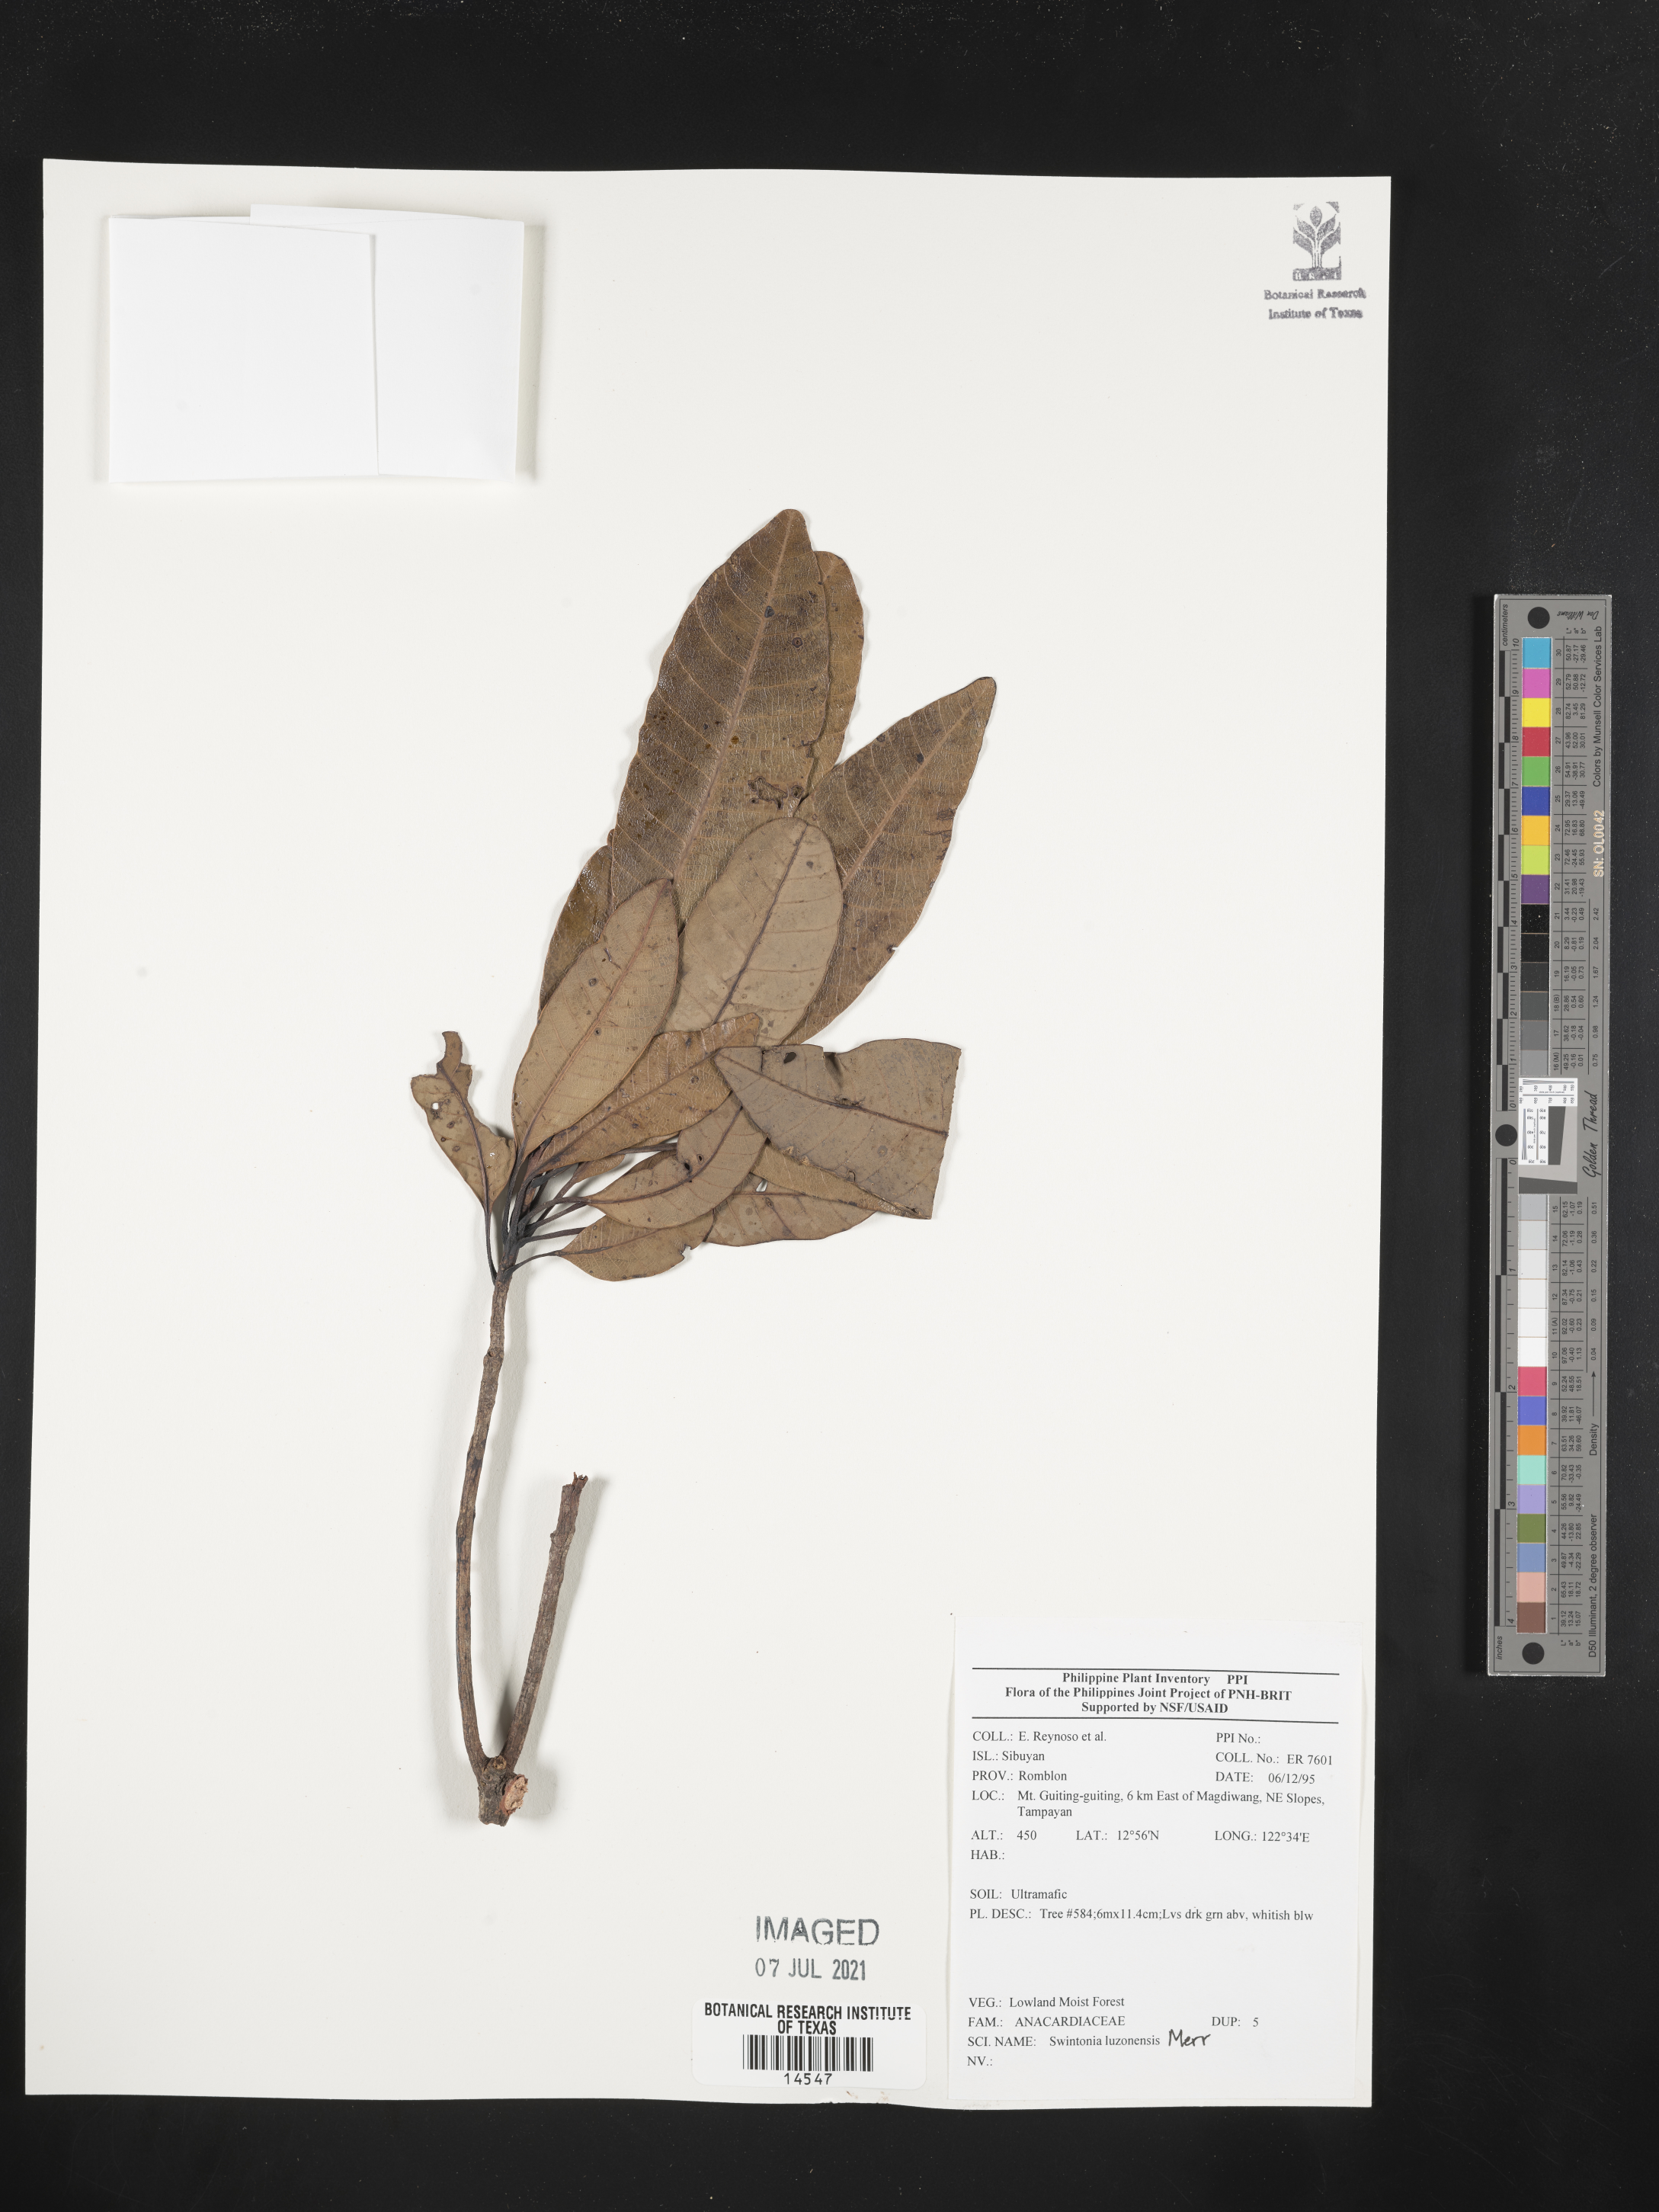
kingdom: Plantae
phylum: Tracheophyta
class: Magnoliopsida
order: Sapindales
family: Anacardiaceae
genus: Swintonia
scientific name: Swintonia acuta
